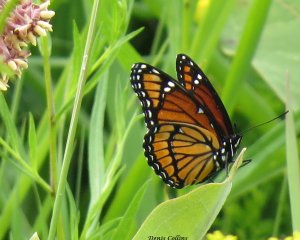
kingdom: Animalia
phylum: Arthropoda
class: Insecta
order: Lepidoptera
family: Nymphalidae
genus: Limenitis
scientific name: Limenitis archippus
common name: Viceroy
